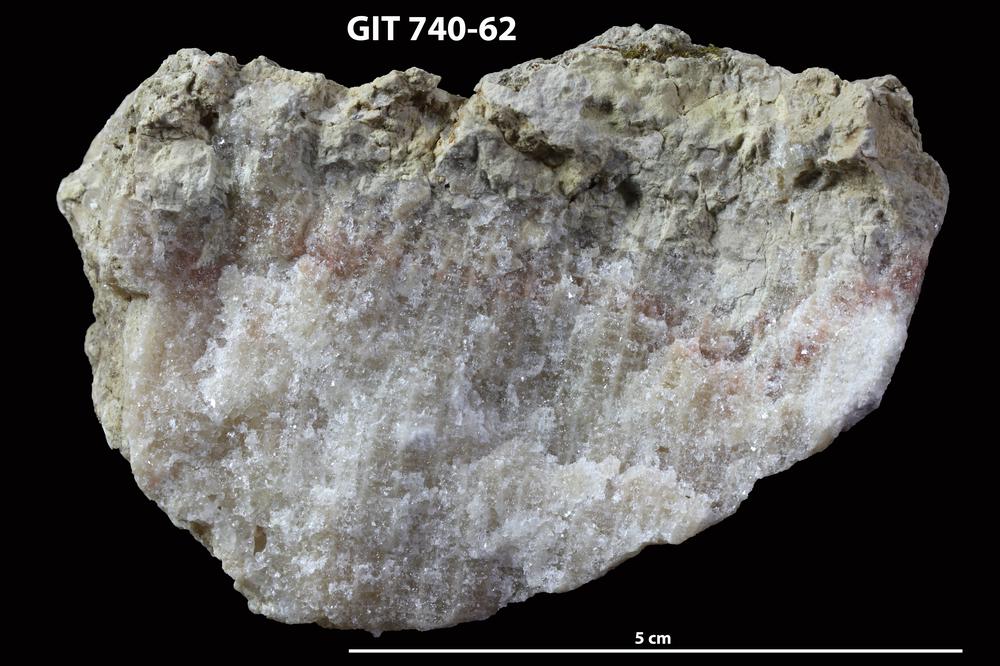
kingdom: Animalia
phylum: Cnidaria
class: Anthozoa
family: Favositidae
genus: Paleofavosites
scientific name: Paleofavosites
